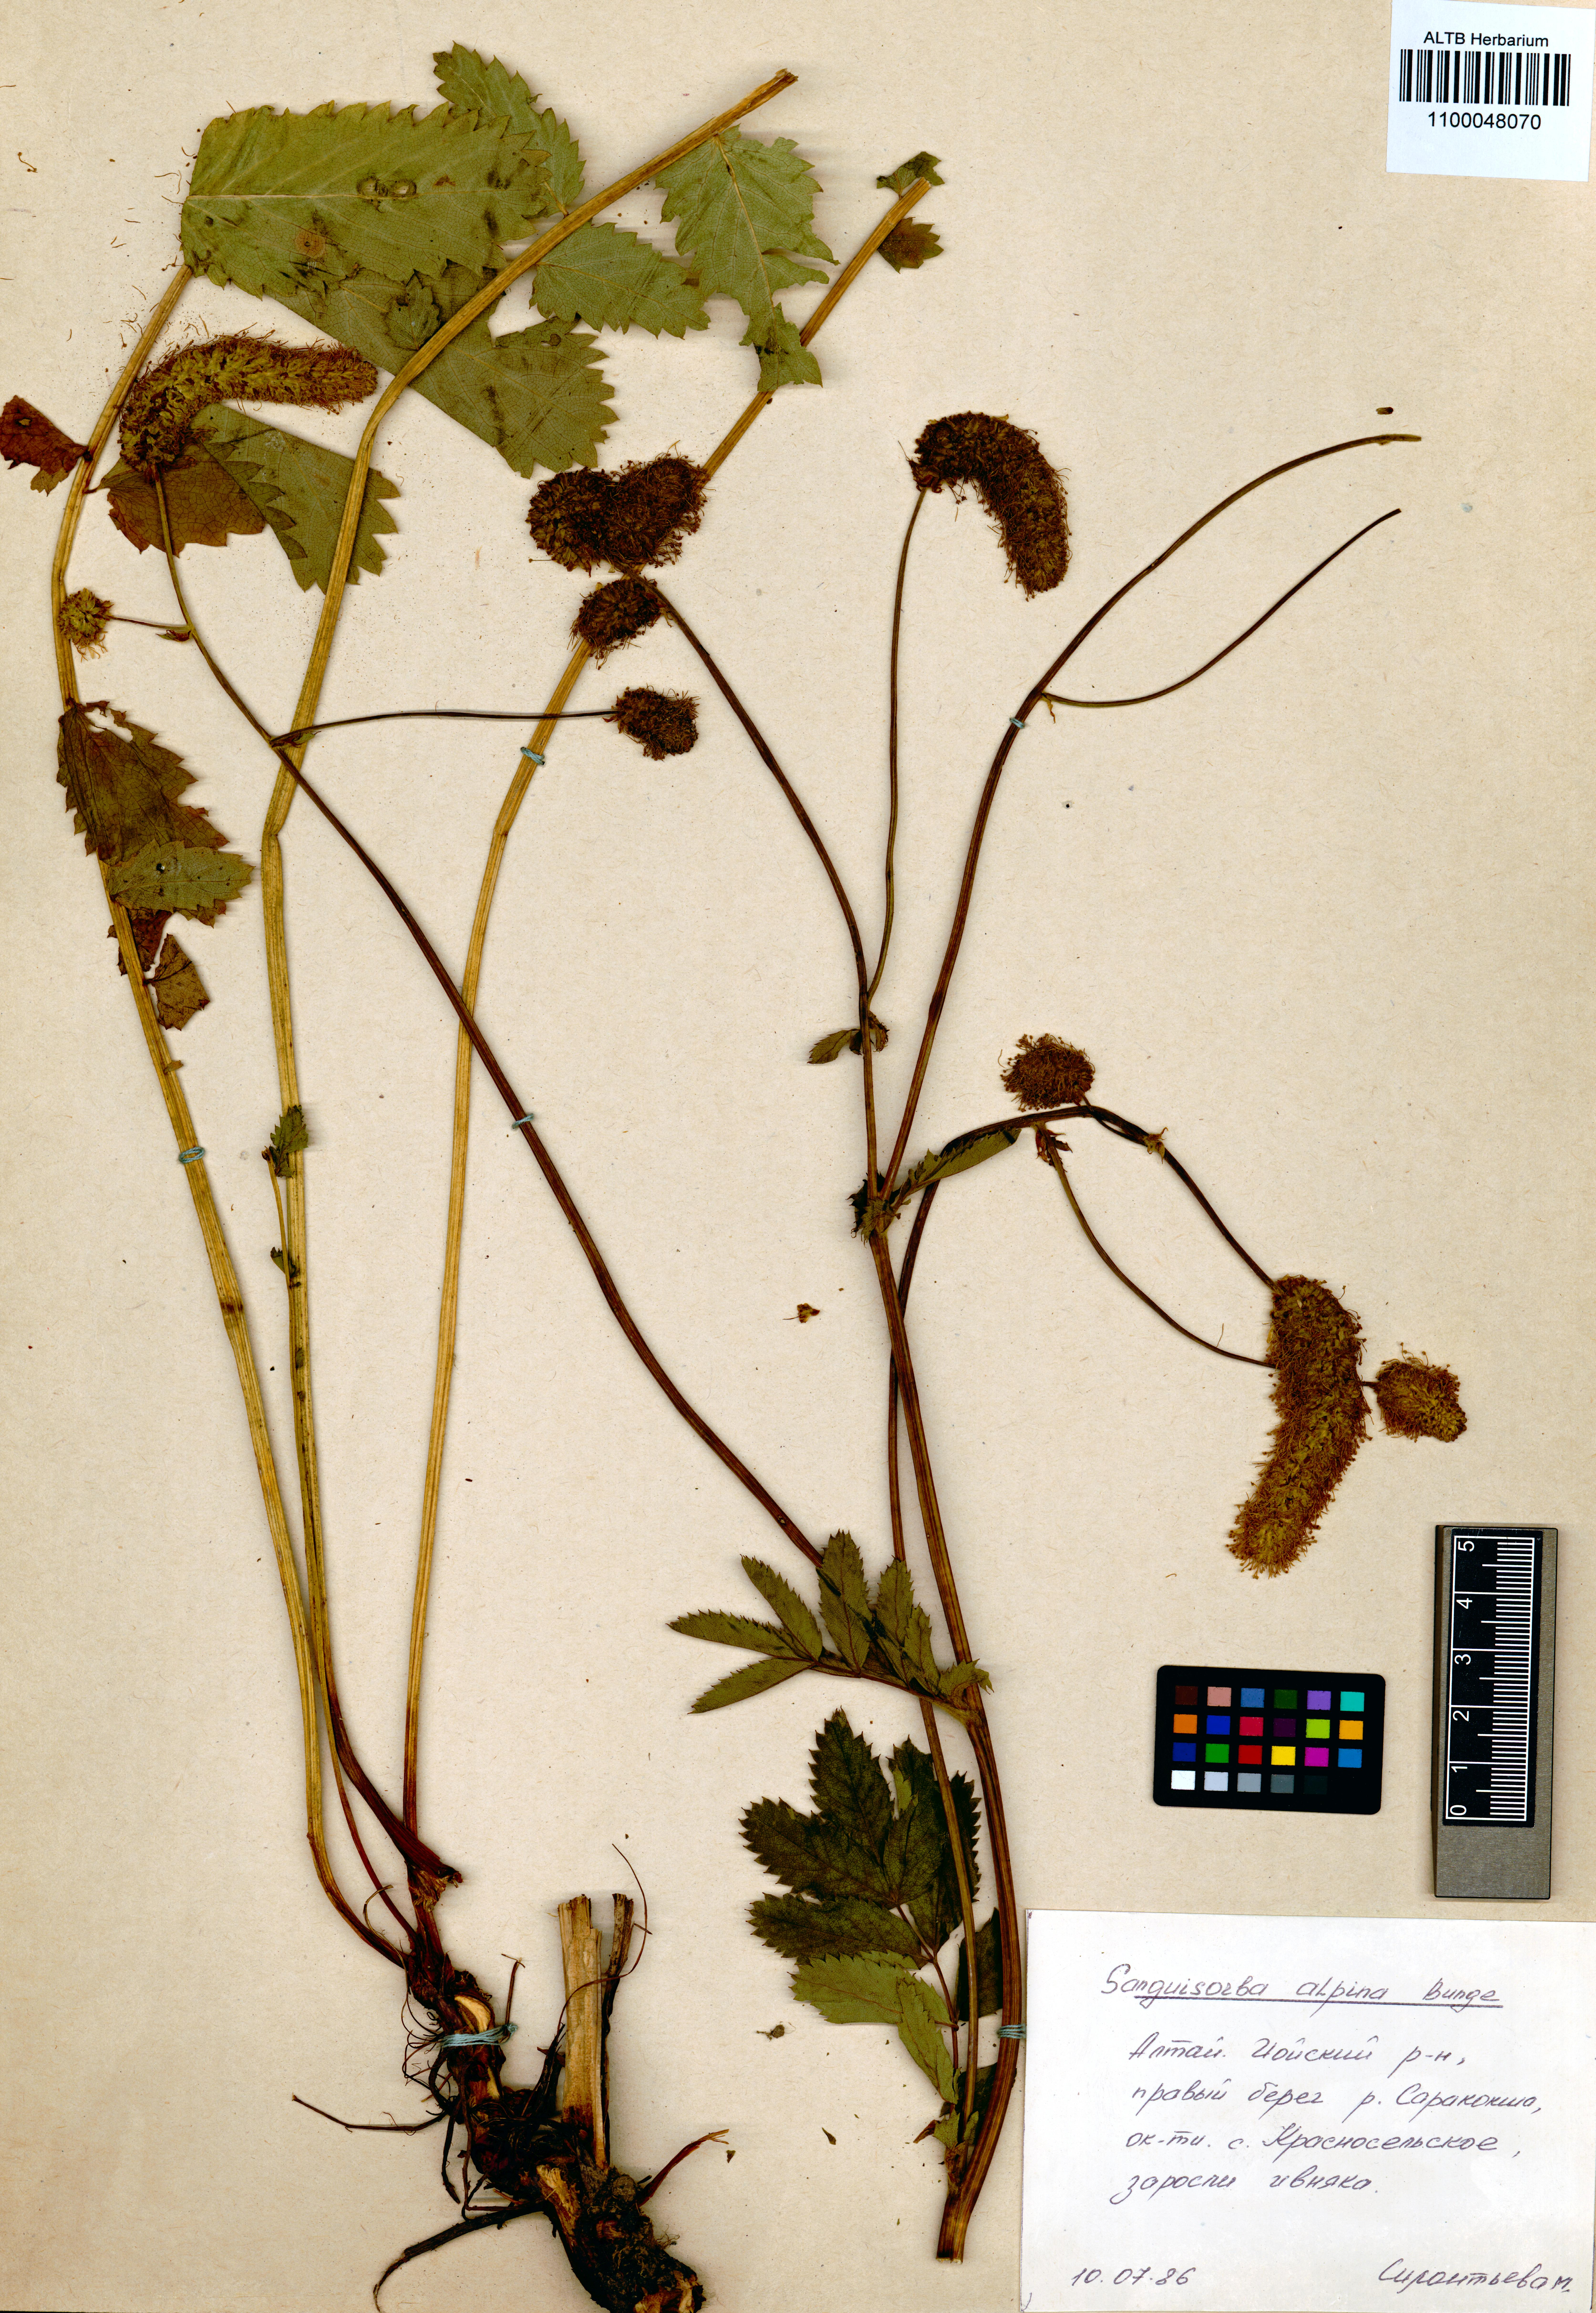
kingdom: Plantae
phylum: Tracheophyta
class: Magnoliopsida
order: Rosales
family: Rosaceae
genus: Sanguisorba
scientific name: Sanguisorba alpina
